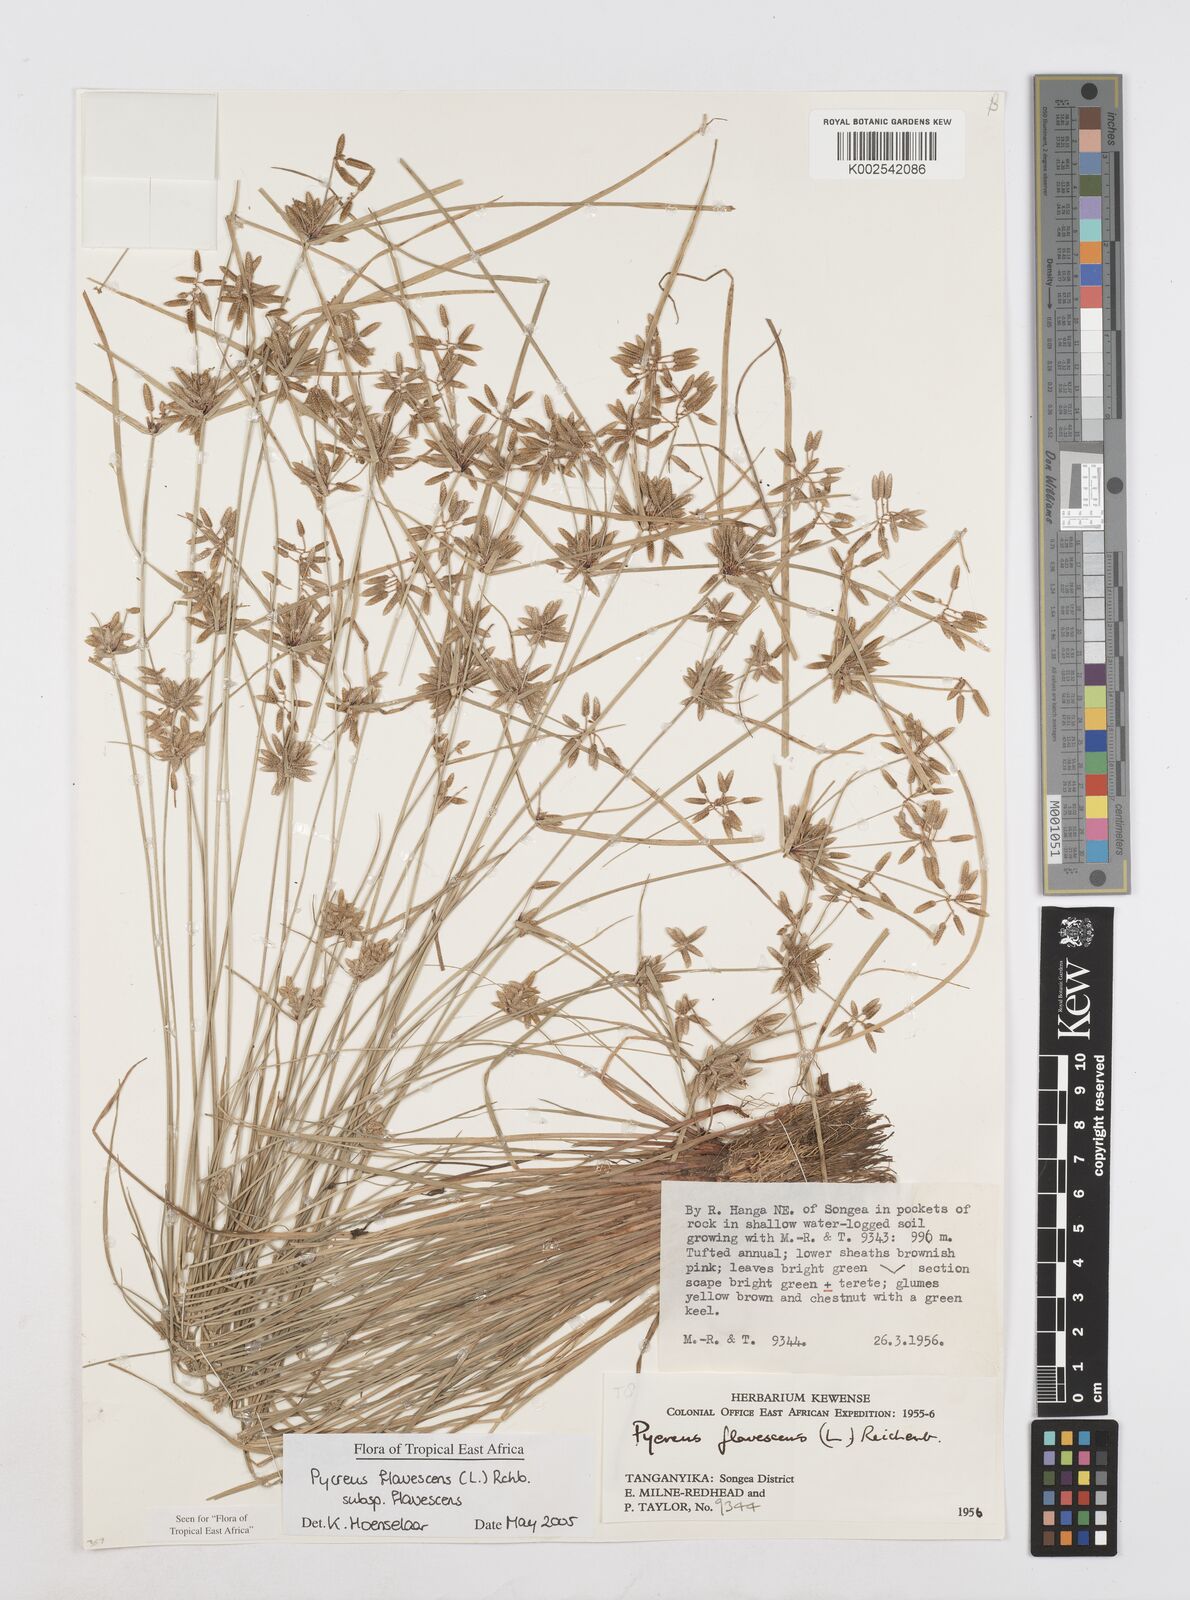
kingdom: Plantae
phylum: Tracheophyta
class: Liliopsida
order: Poales
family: Cyperaceae
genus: Cyperus
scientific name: Cyperus flavescens
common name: Yellow galingale
